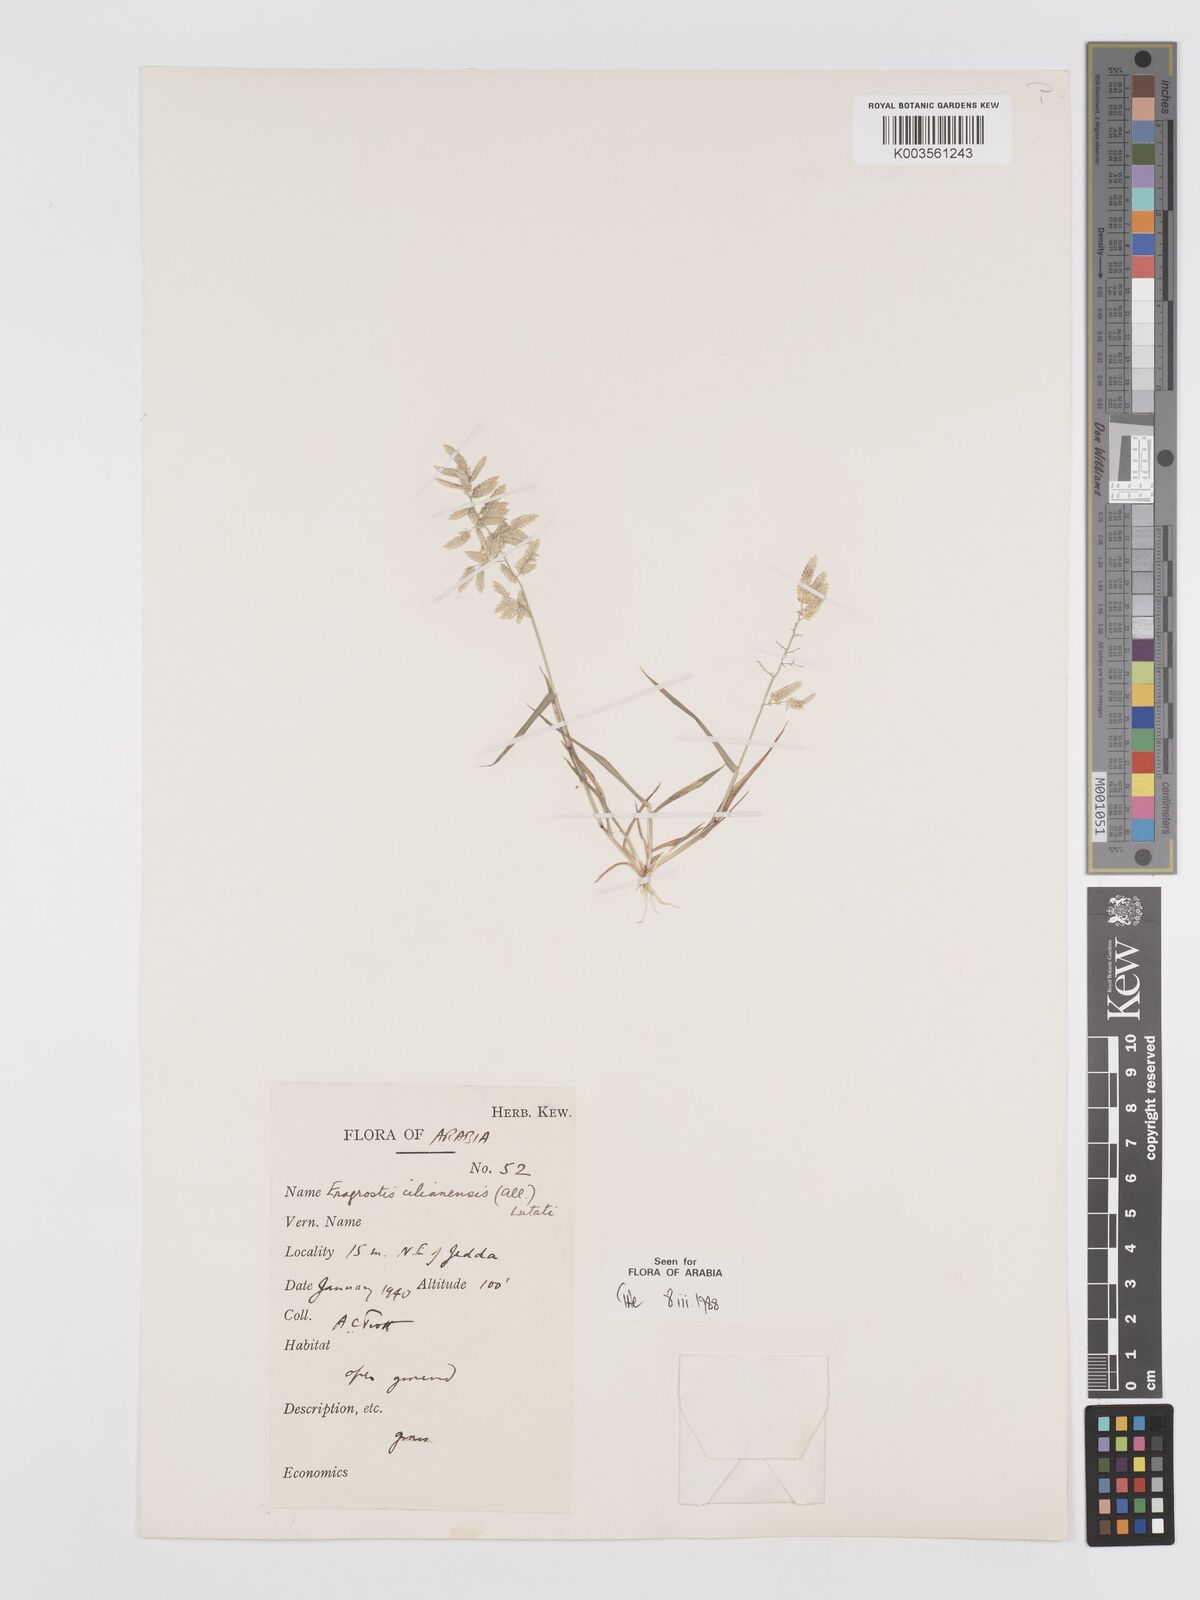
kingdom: Plantae
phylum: Tracheophyta
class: Liliopsida
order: Poales
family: Poaceae
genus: Eragrostis
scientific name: Eragrostis cilianensis
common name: Stinkgrass
